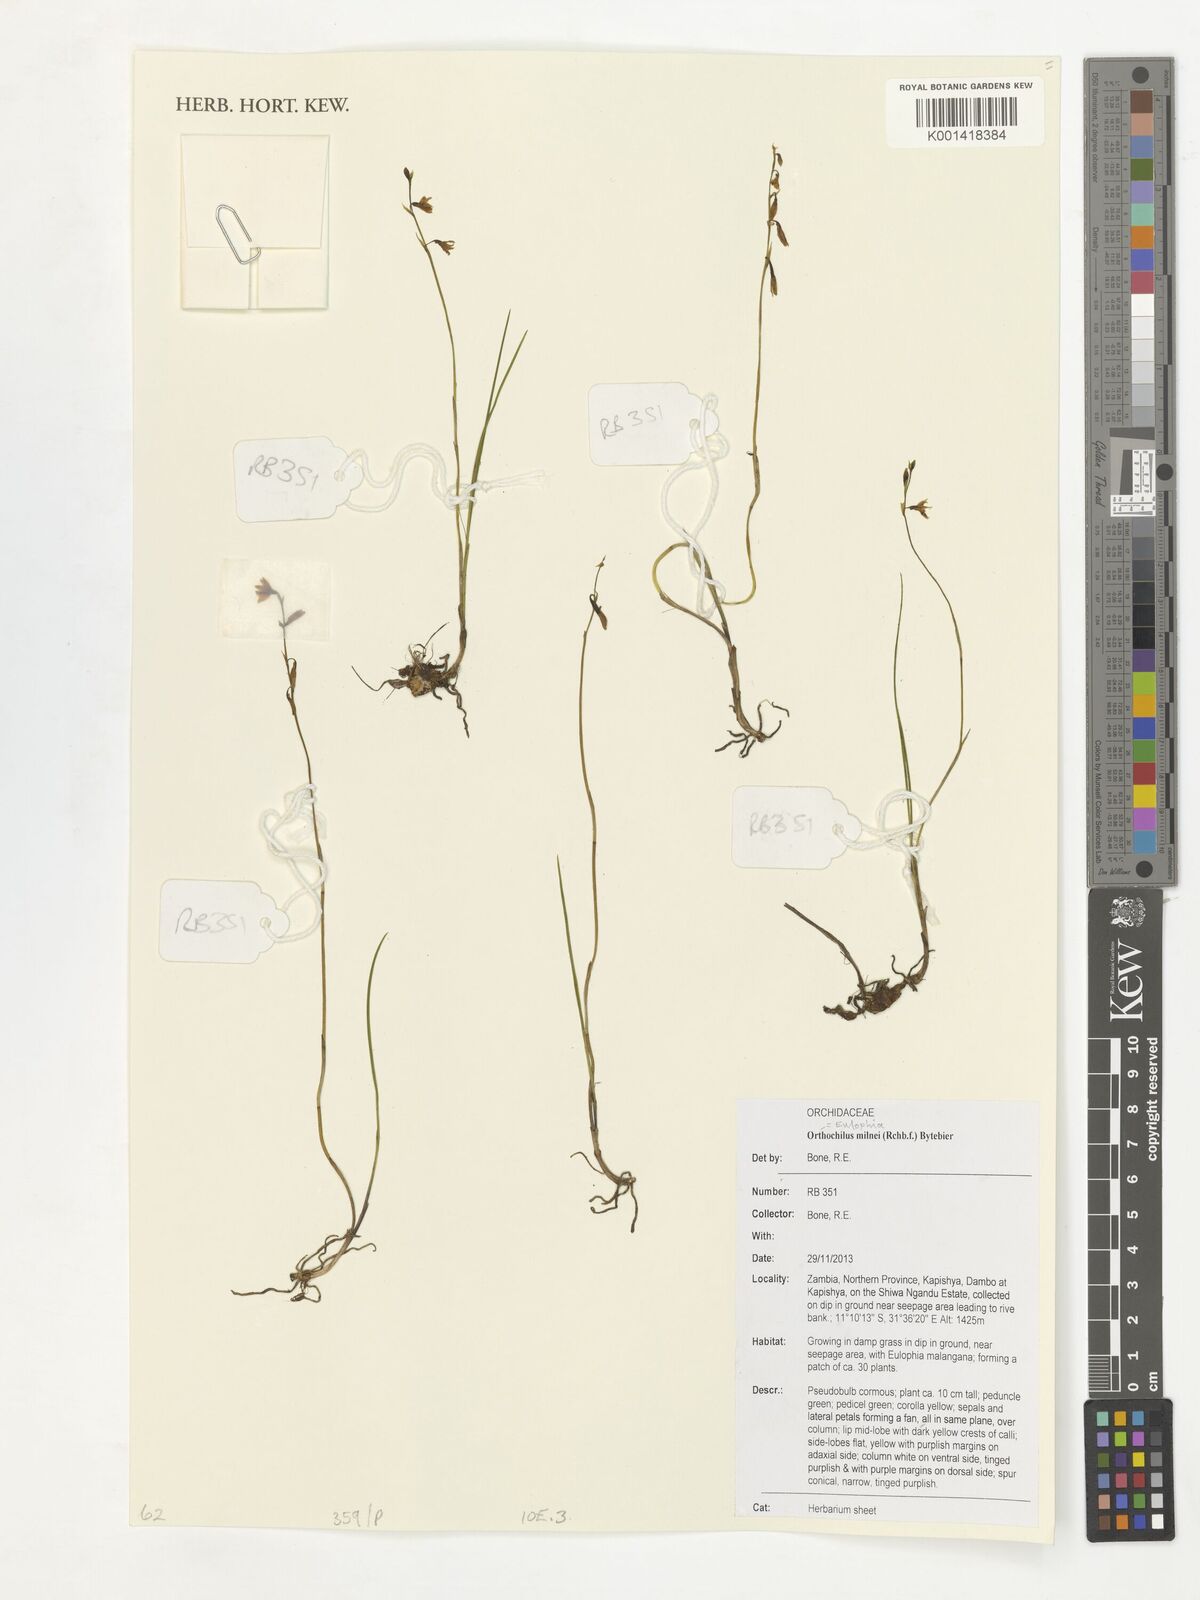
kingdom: Plantae
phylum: Tracheophyta
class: Liliopsida
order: Asparagales
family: Orchidaceae
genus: Eulophia
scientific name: Eulophia milnei
